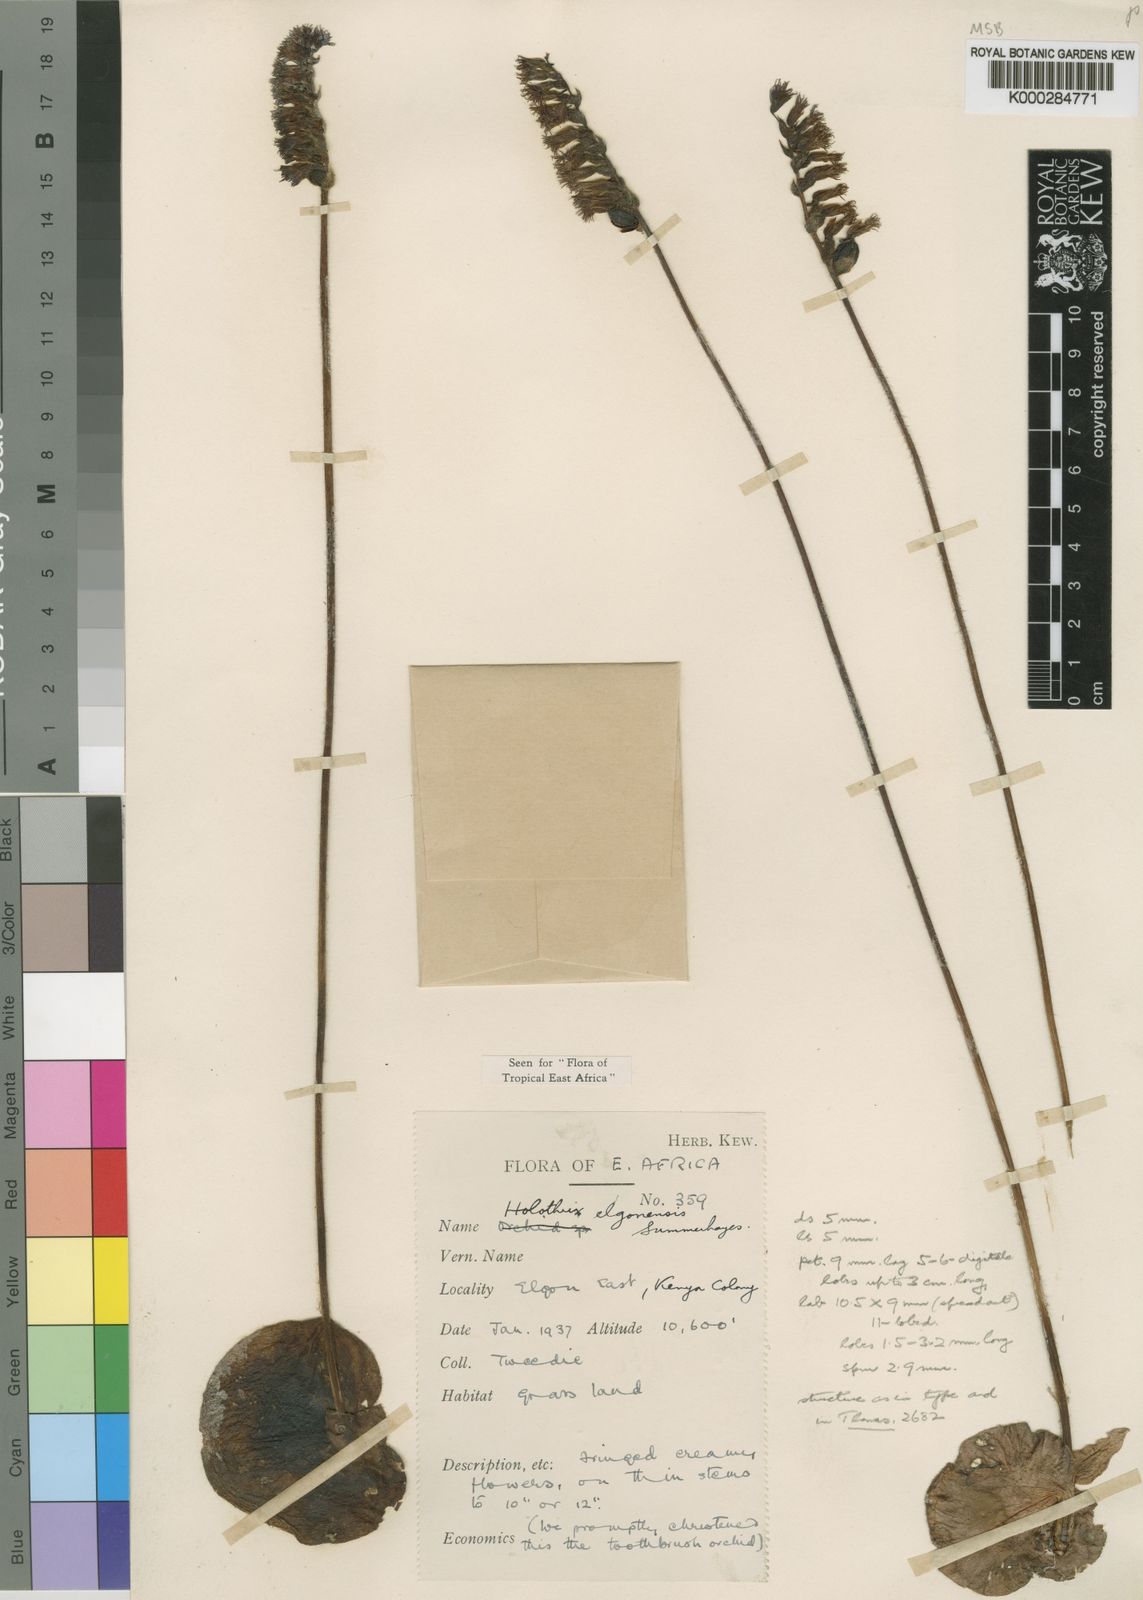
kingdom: Plantae
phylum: Tracheophyta
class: Liliopsida
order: Asparagales
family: Orchidaceae
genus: Holothrix
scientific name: Holothrix elgonensis
